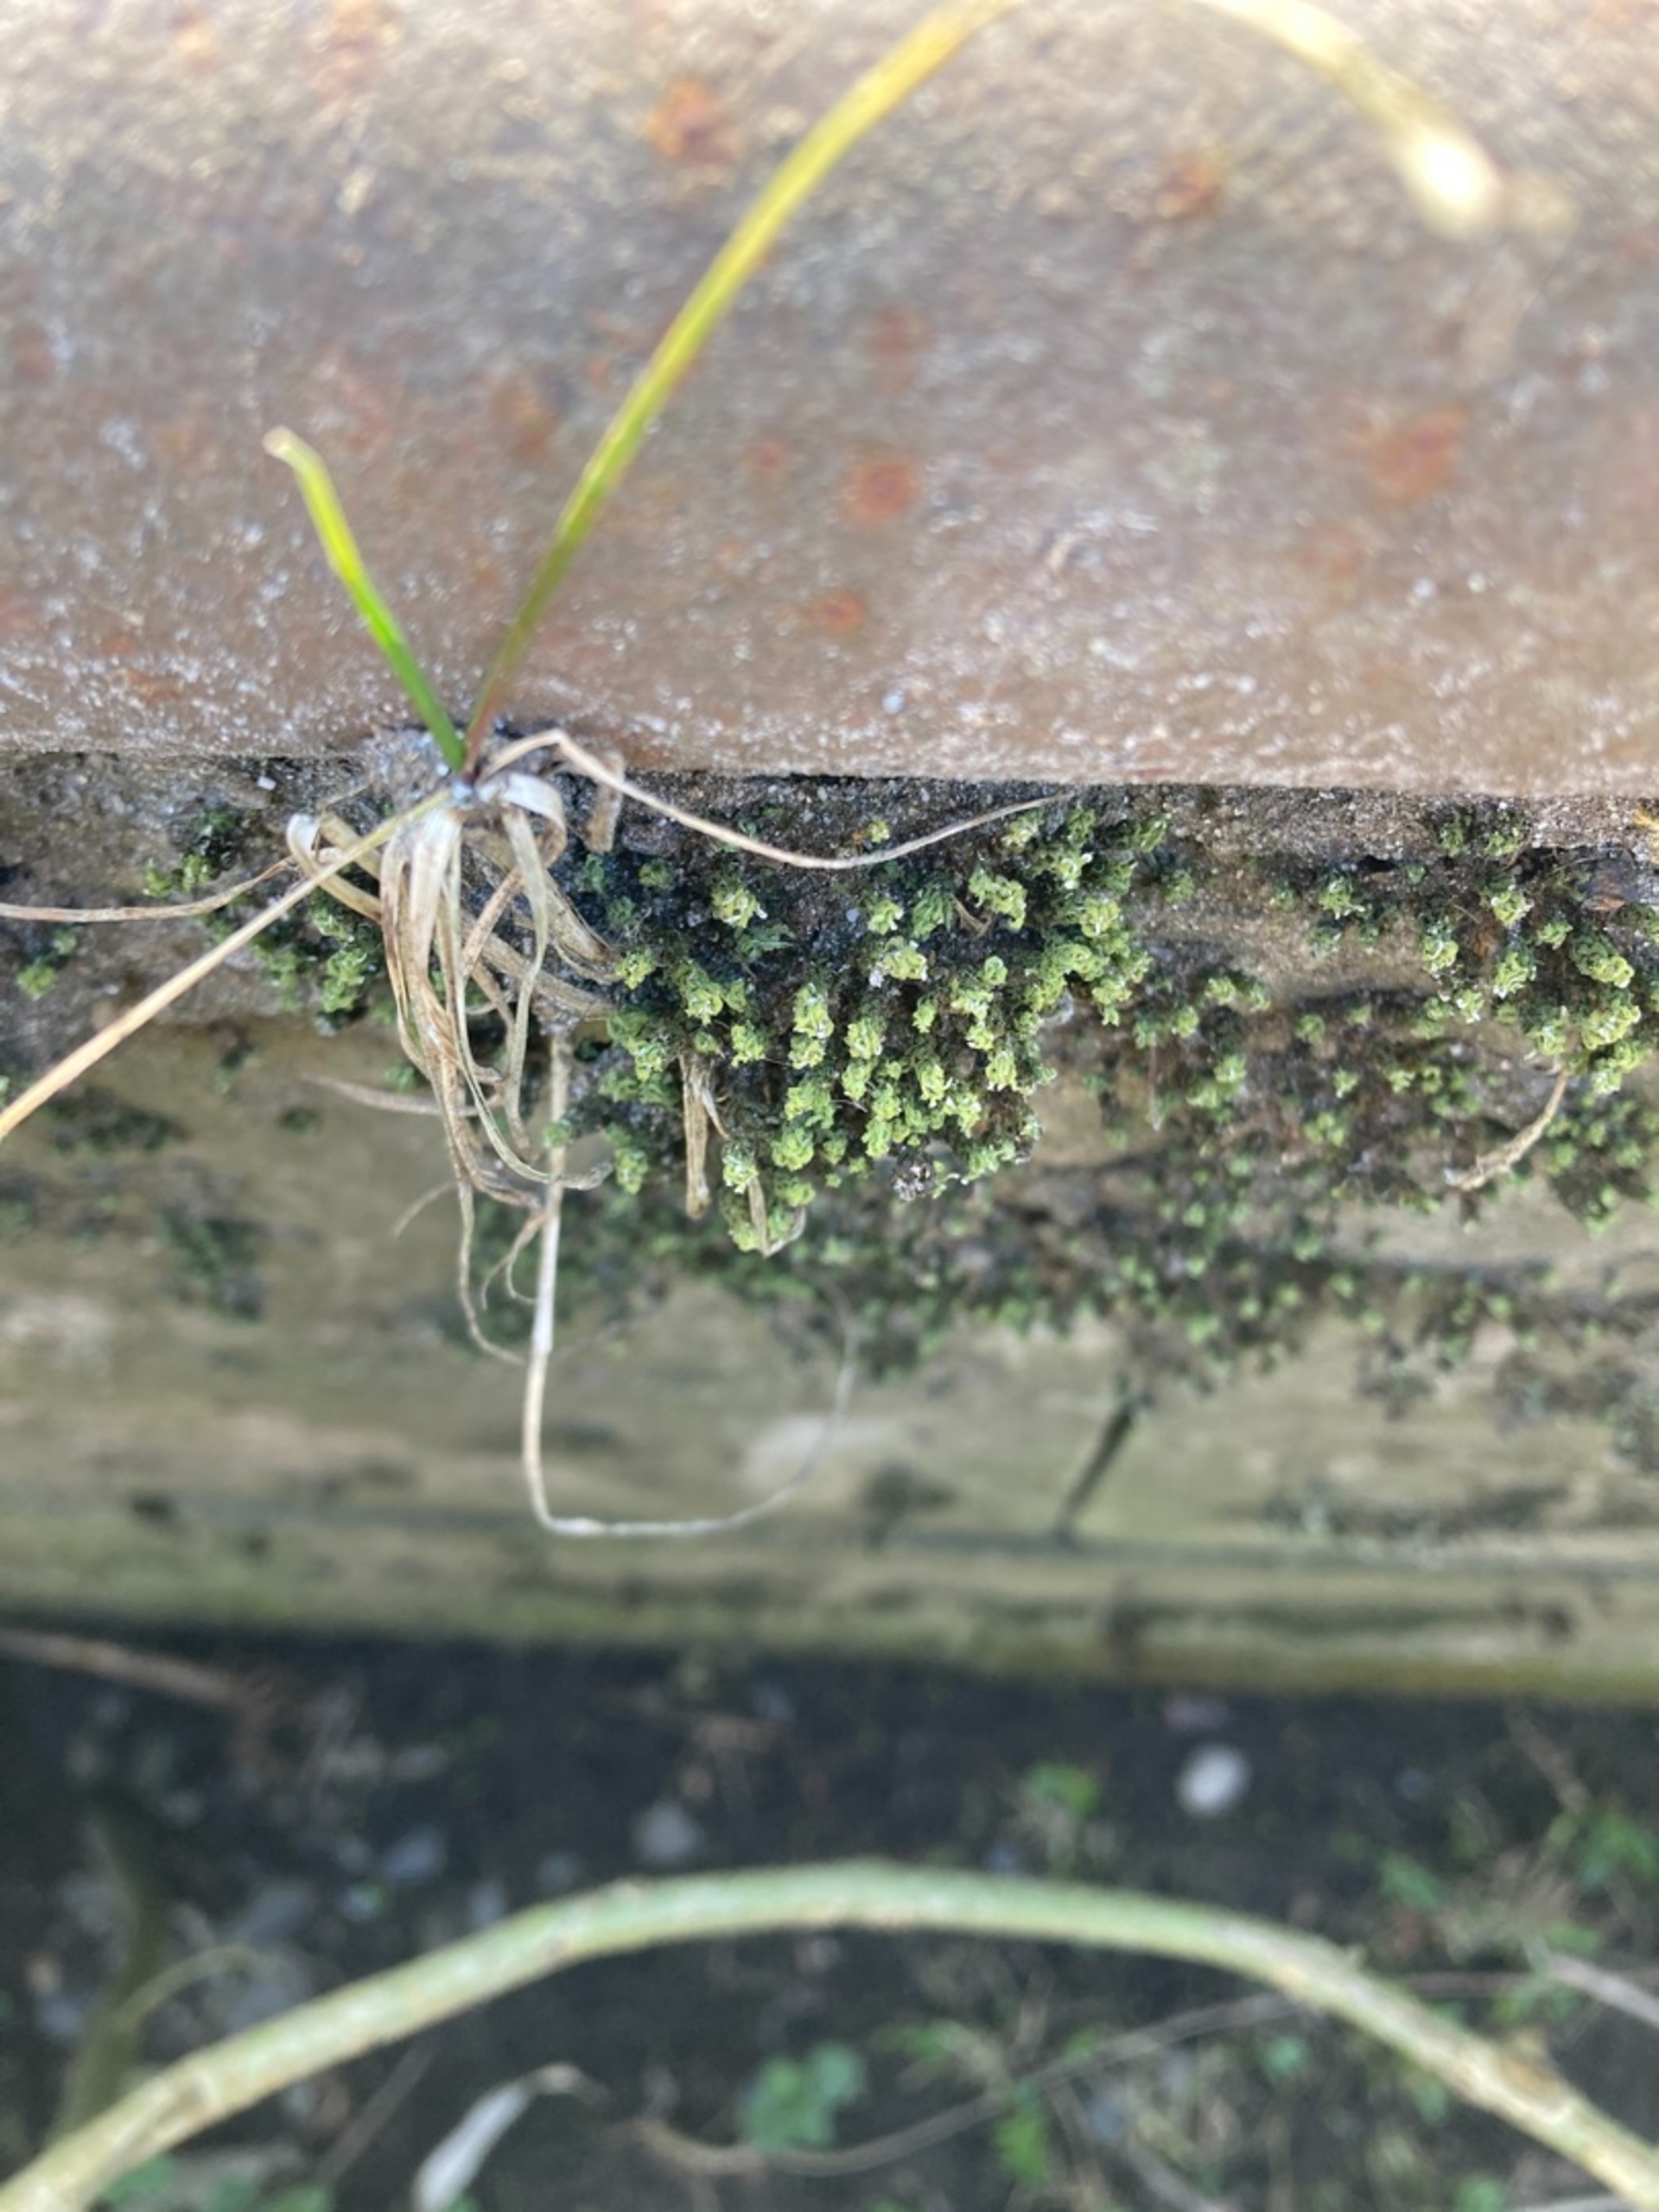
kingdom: Plantae
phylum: Bryophyta
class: Bryopsida
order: Encalyptales
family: Encalyptaceae
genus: Encalypta
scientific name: Encalypta streptocarpa
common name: Stor klokkehætte
